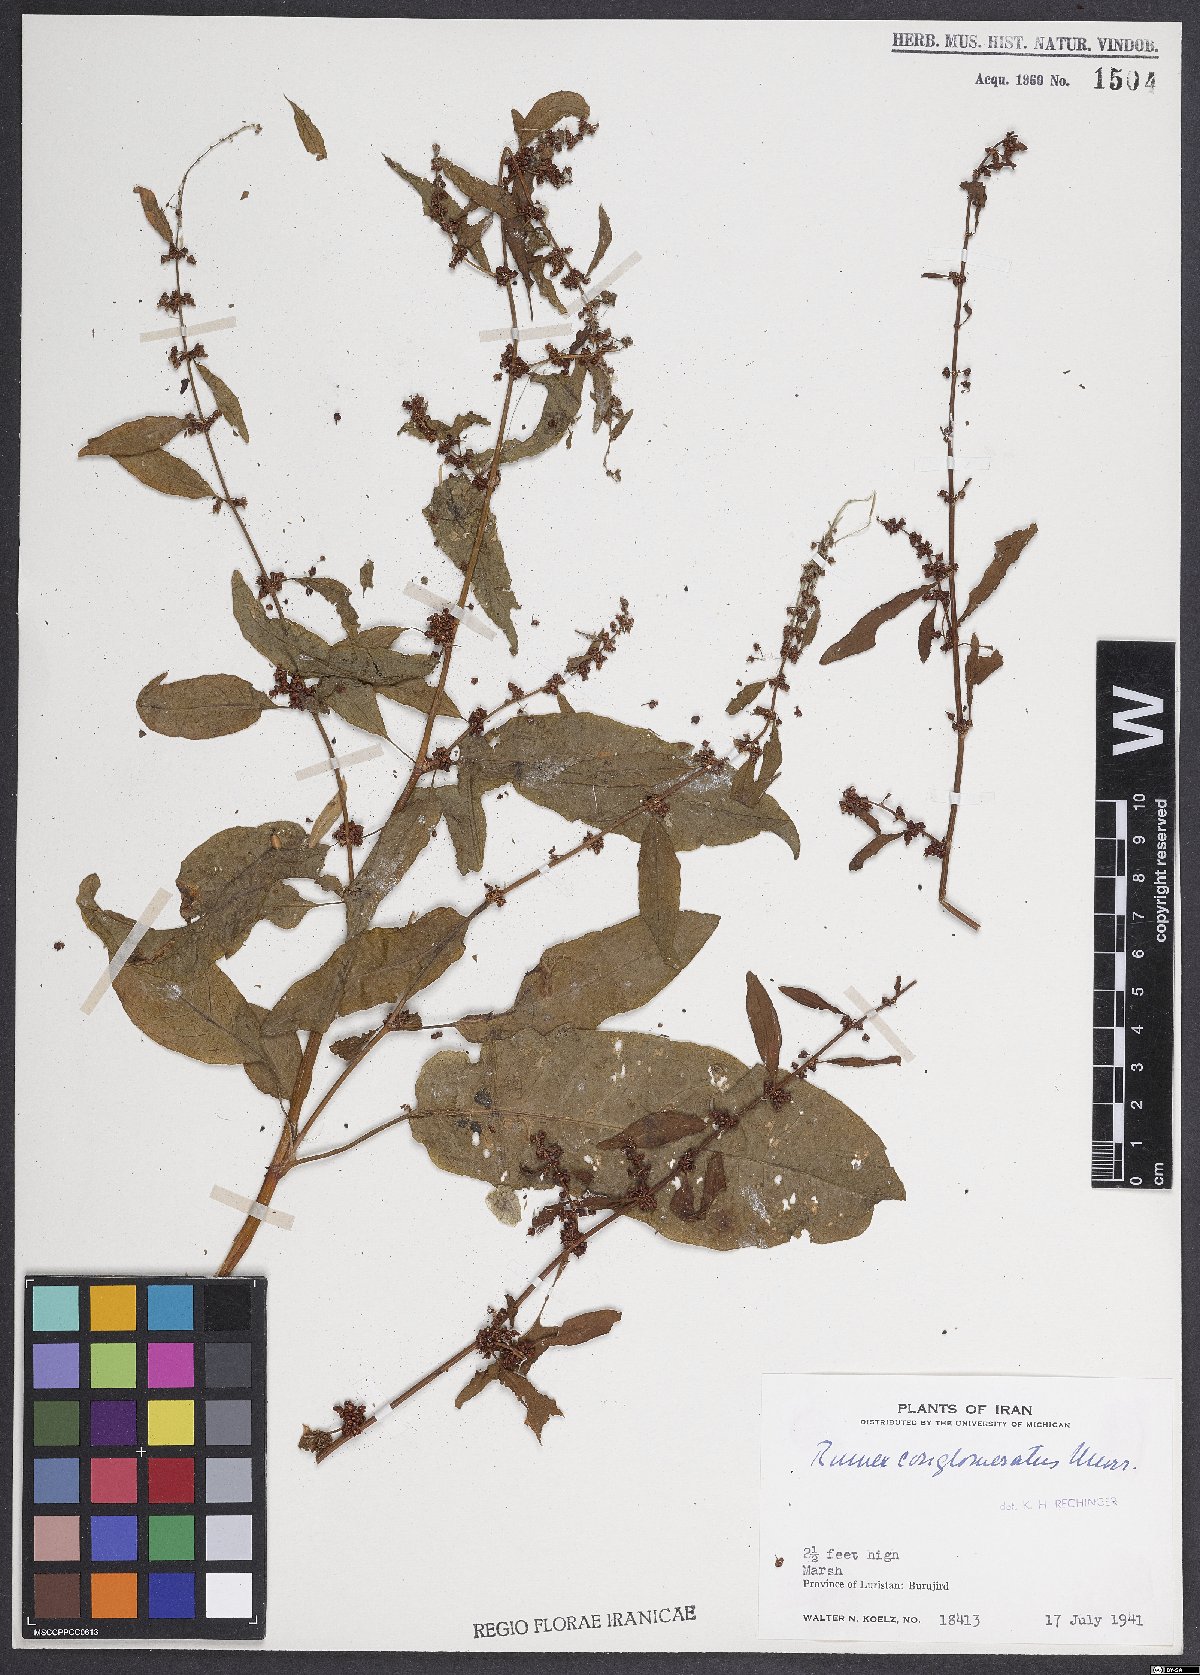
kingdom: Plantae
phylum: Tracheophyta
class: Magnoliopsida
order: Caryophyllales
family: Polygonaceae
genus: Rumex
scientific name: Rumex conglomeratus
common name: Clustered dock
